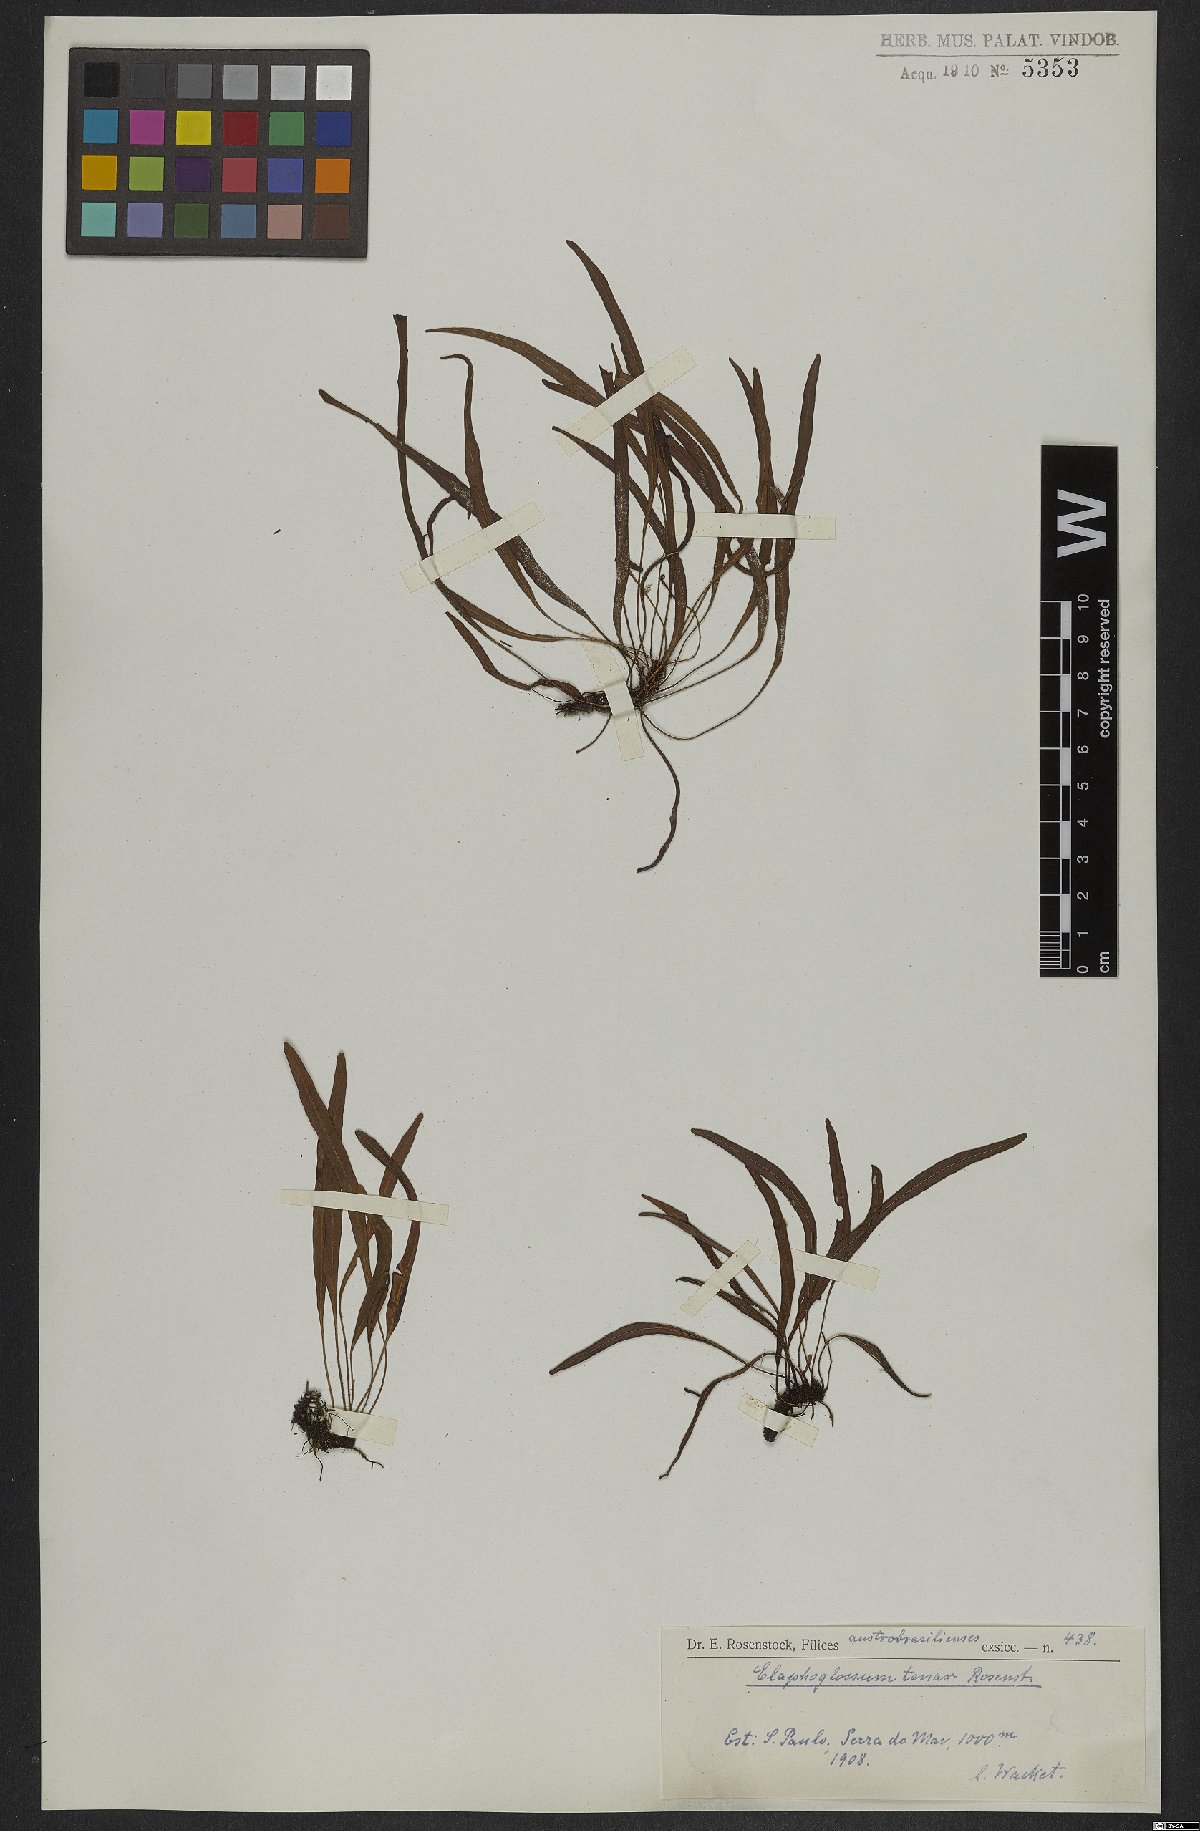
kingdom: Plantae
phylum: Tracheophyta
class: Polypodiopsida
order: Polypodiales
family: Dryopteridaceae
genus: Elaphoglossum
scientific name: Elaphoglossum tenax
